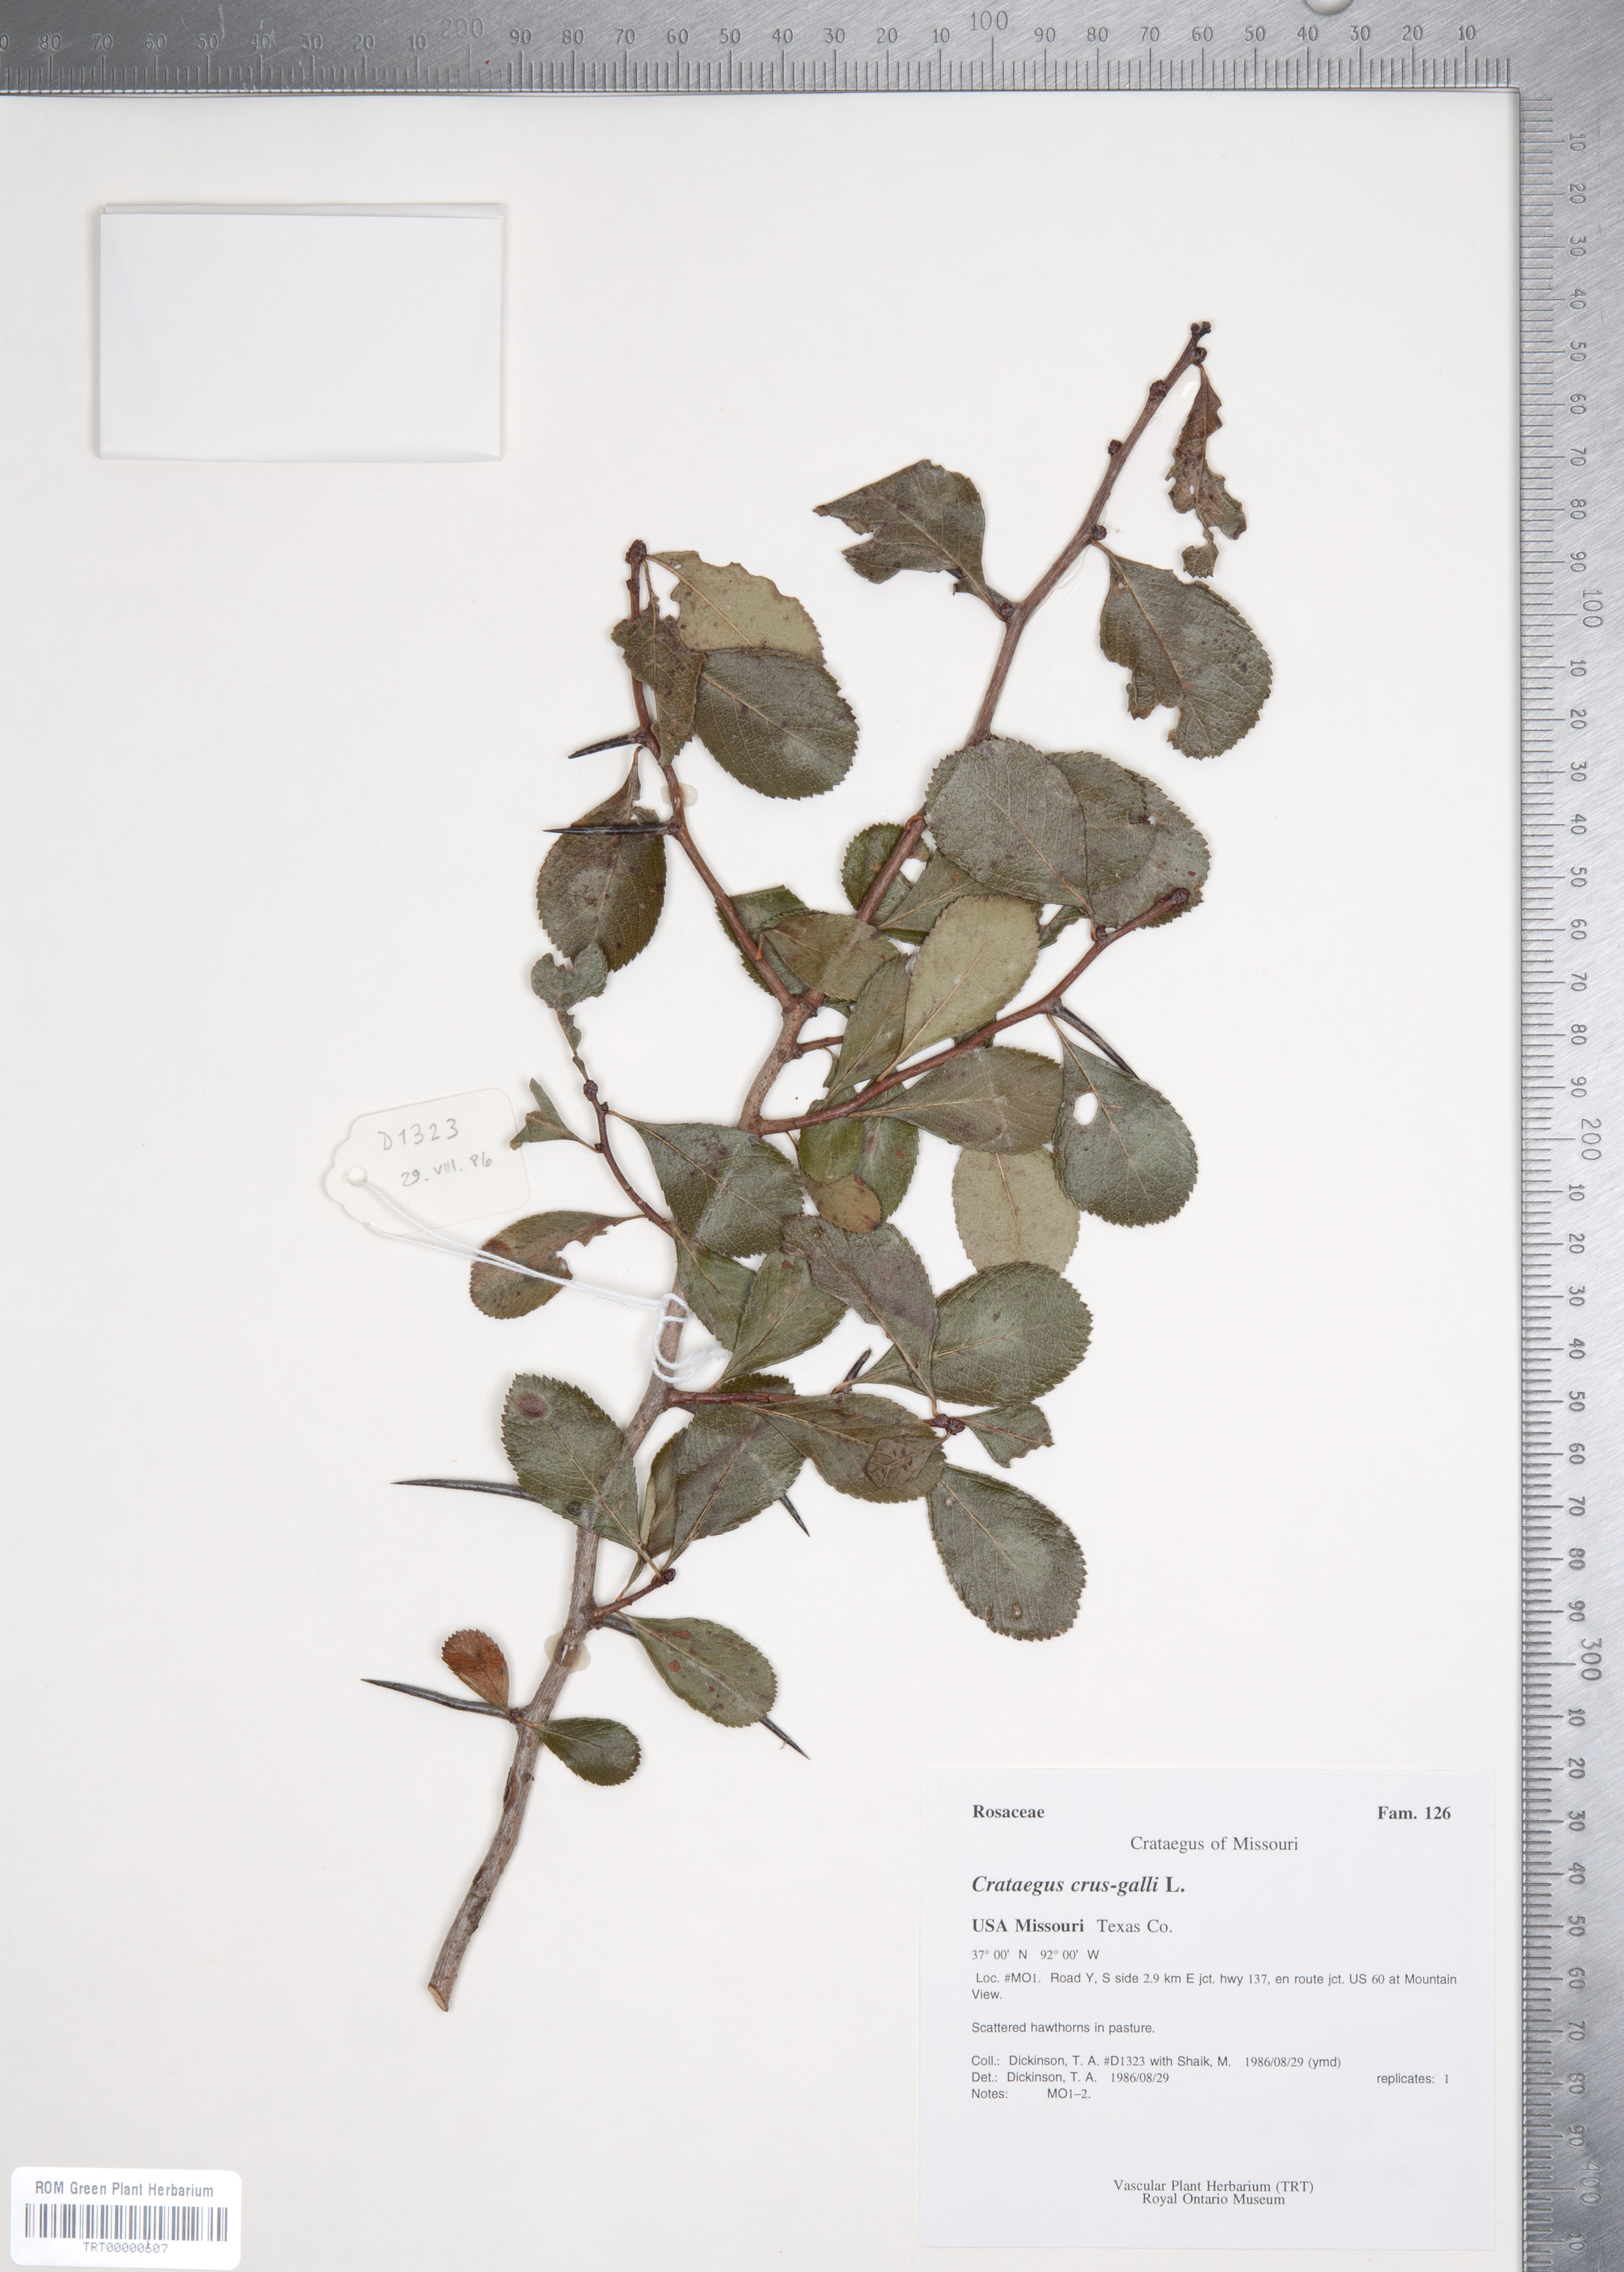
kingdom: Plantae
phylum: Tracheophyta
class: Magnoliopsida
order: Rosales
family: Rosaceae
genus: Crataegus
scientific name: Crataegus crus-galli
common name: Cockspurthorn
